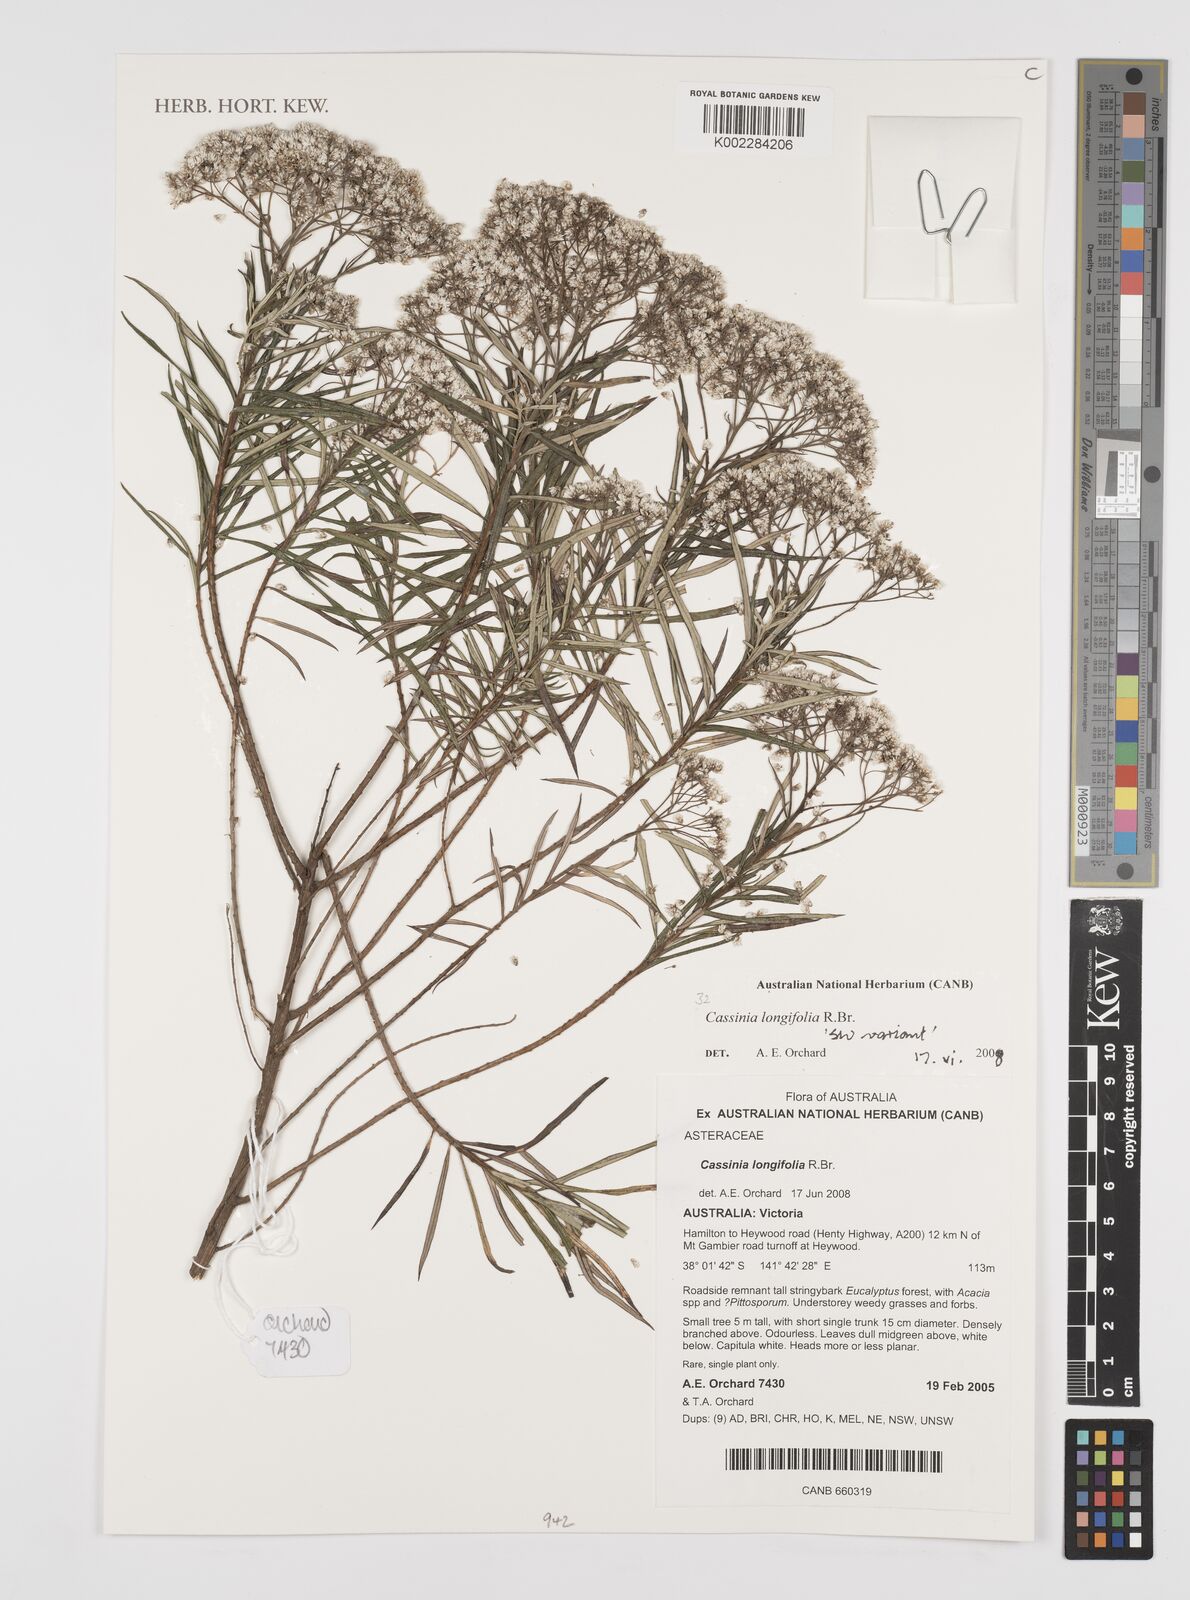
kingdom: Plantae
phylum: Tracheophyta
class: Magnoliopsida
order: Asterales
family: Asteraceae
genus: Cassinia
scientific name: Cassinia longifolia
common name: Longleaf-dogwood
